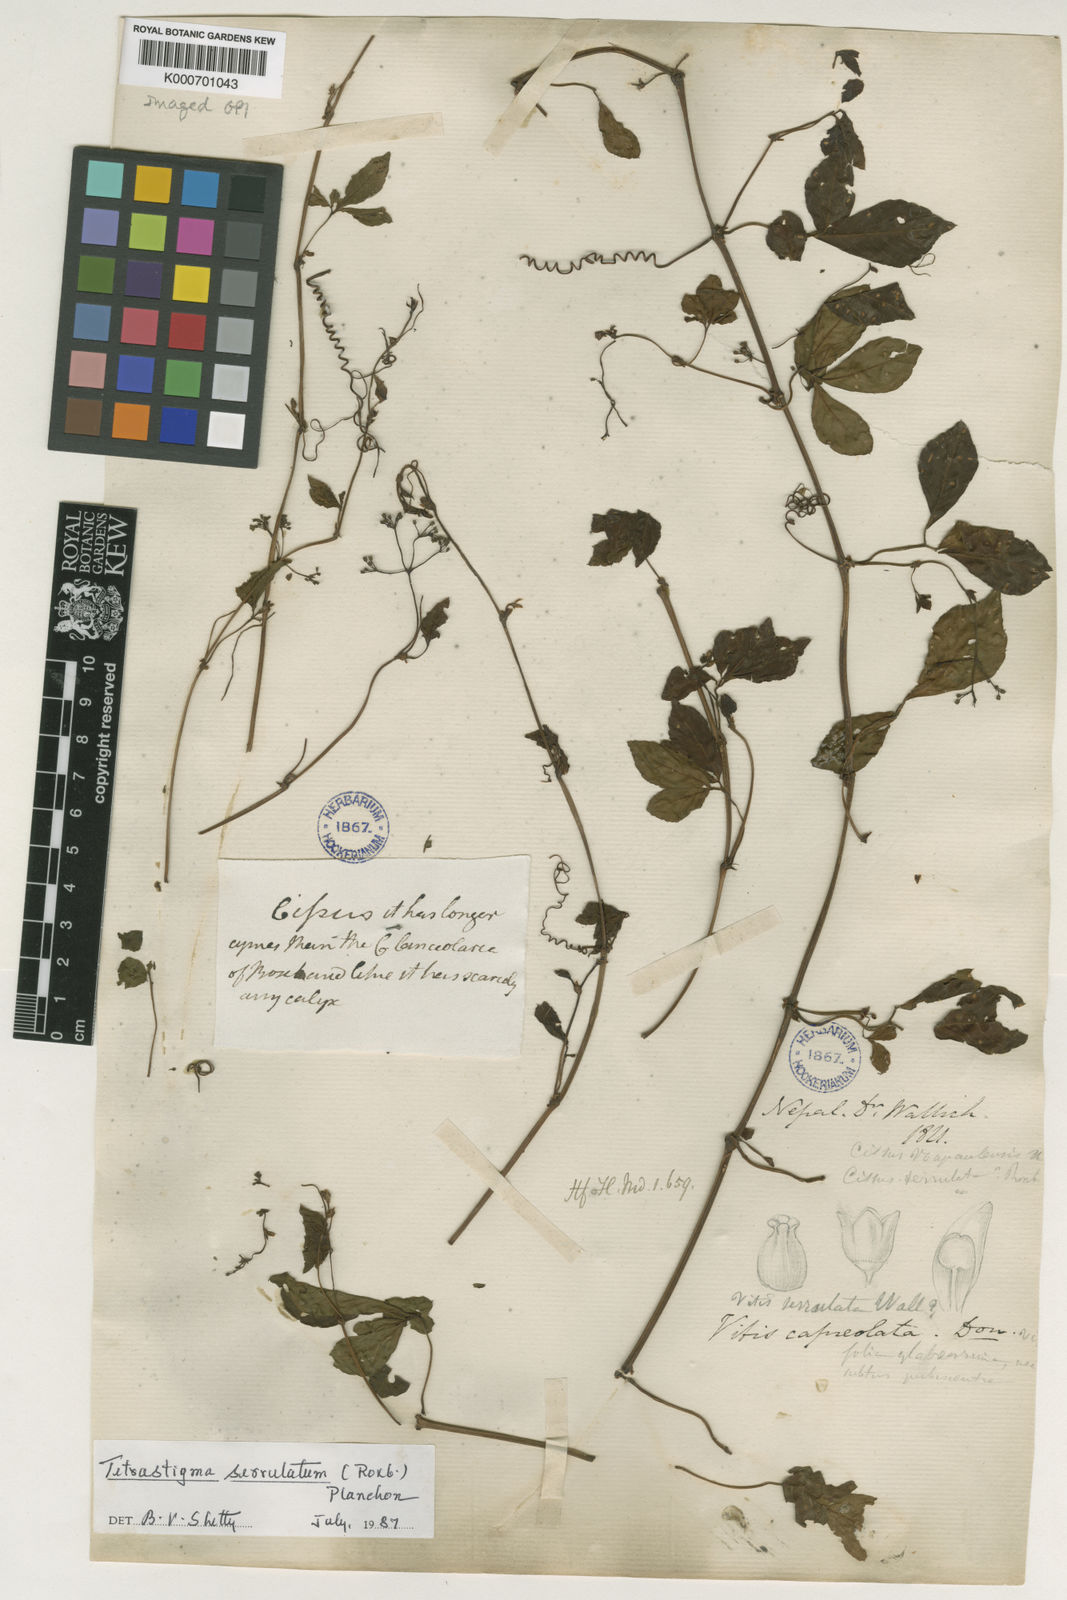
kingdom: Plantae
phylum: Tracheophyta
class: Magnoliopsida
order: Vitales
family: Vitaceae
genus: Tetrastigma
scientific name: Tetrastigma serrulatum
